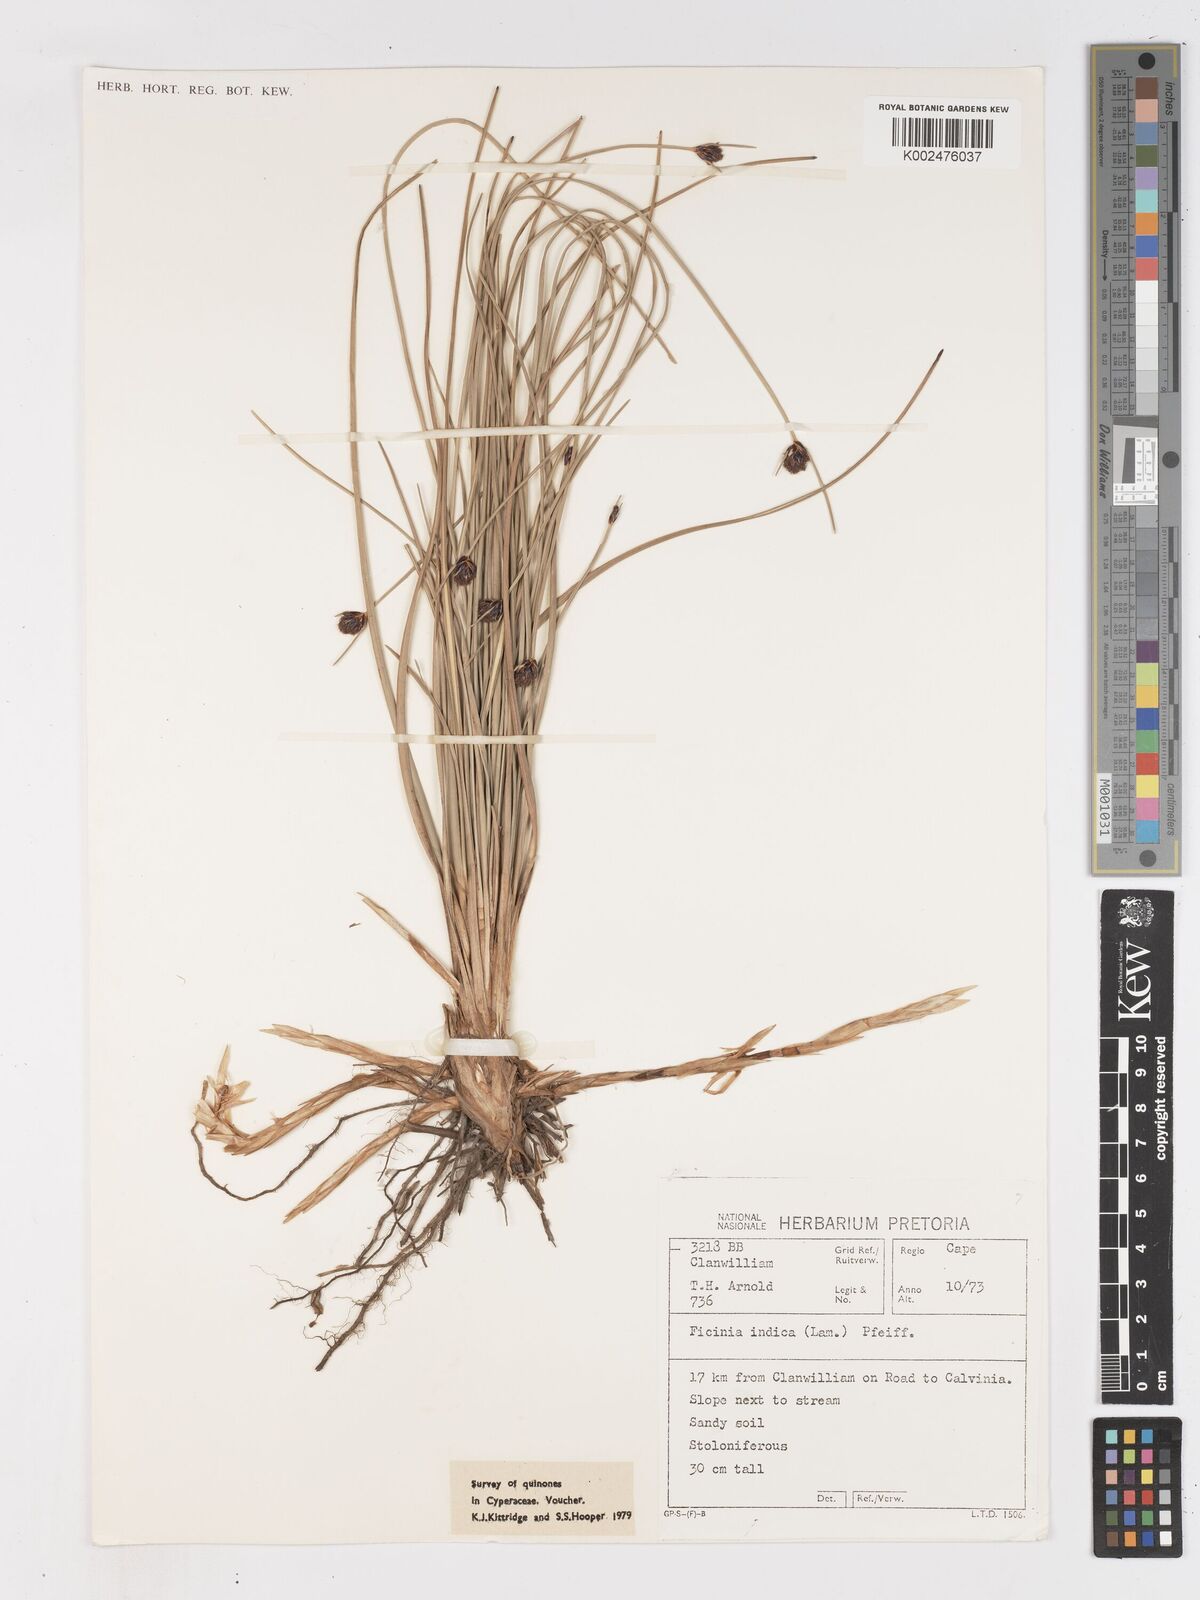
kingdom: Plantae
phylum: Tracheophyta
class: Liliopsida
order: Poales
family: Cyperaceae
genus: Ficinia
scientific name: Ficinia indica
